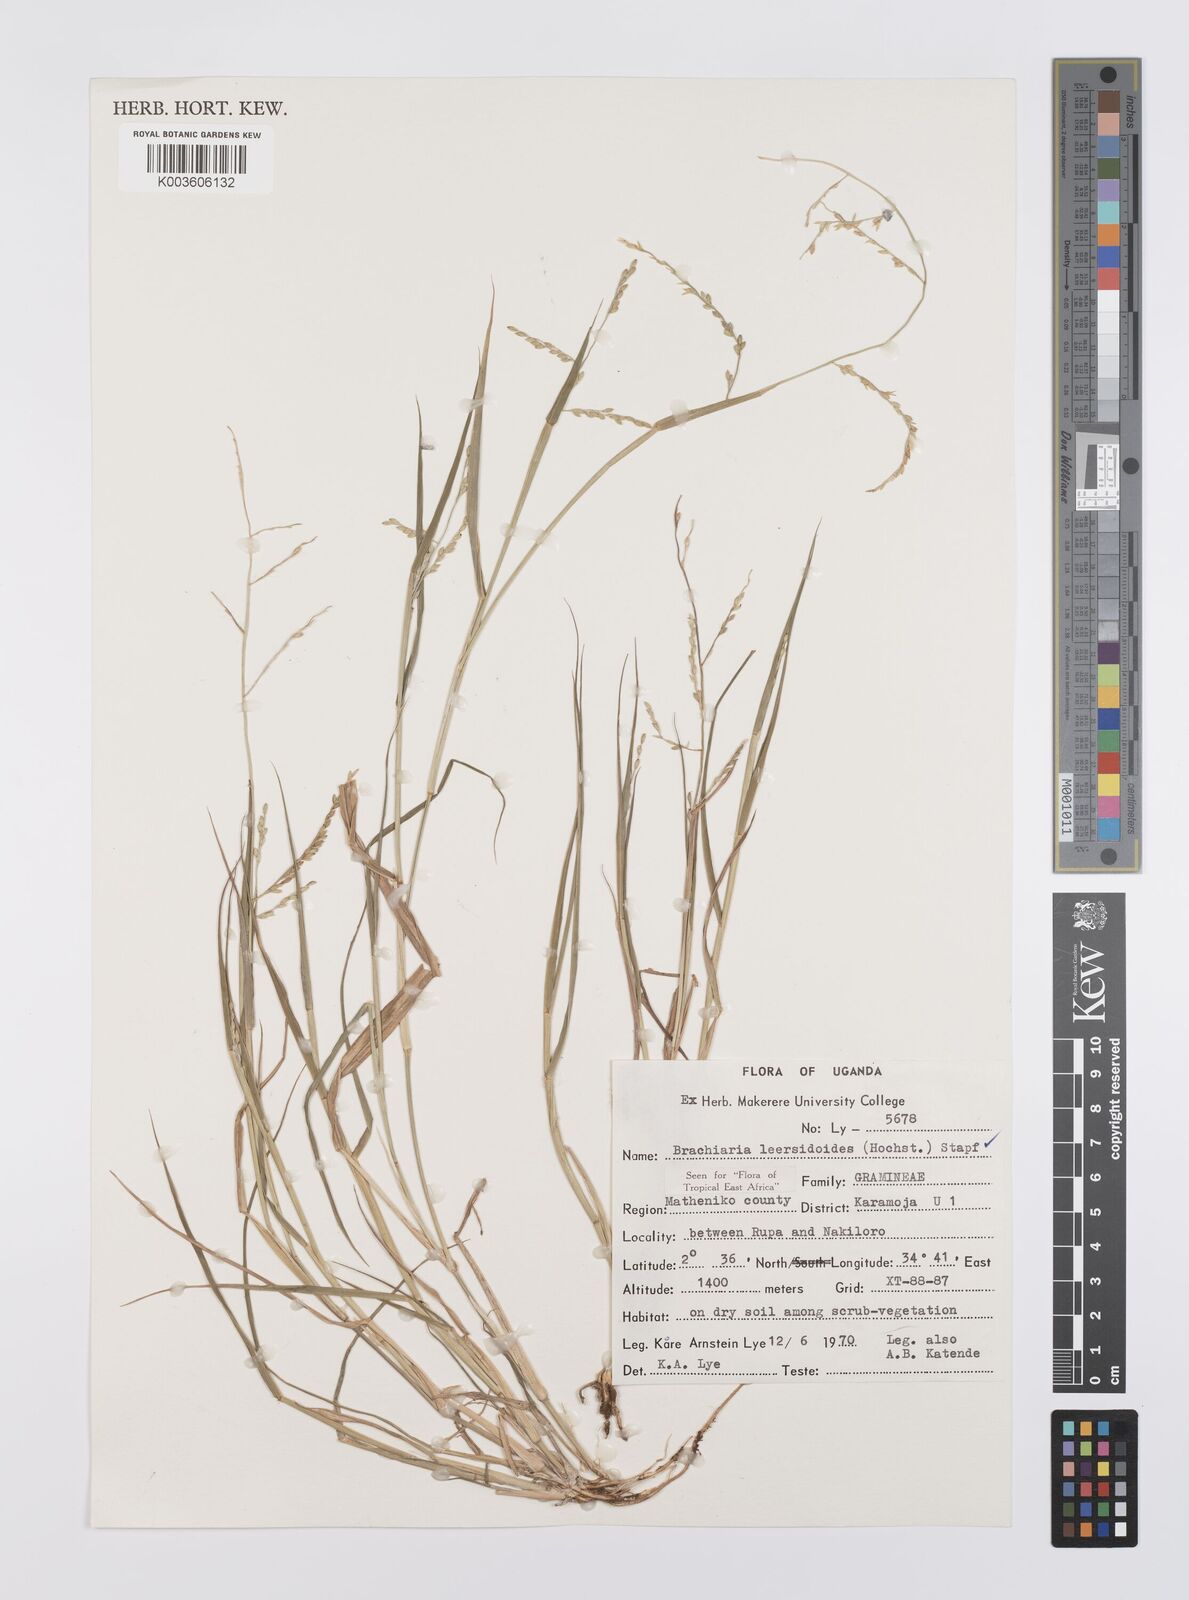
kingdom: Plantae
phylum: Tracheophyta
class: Liliopsida
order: Poales
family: Poaceae
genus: Urochloa
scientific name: Urochloa leersioides
